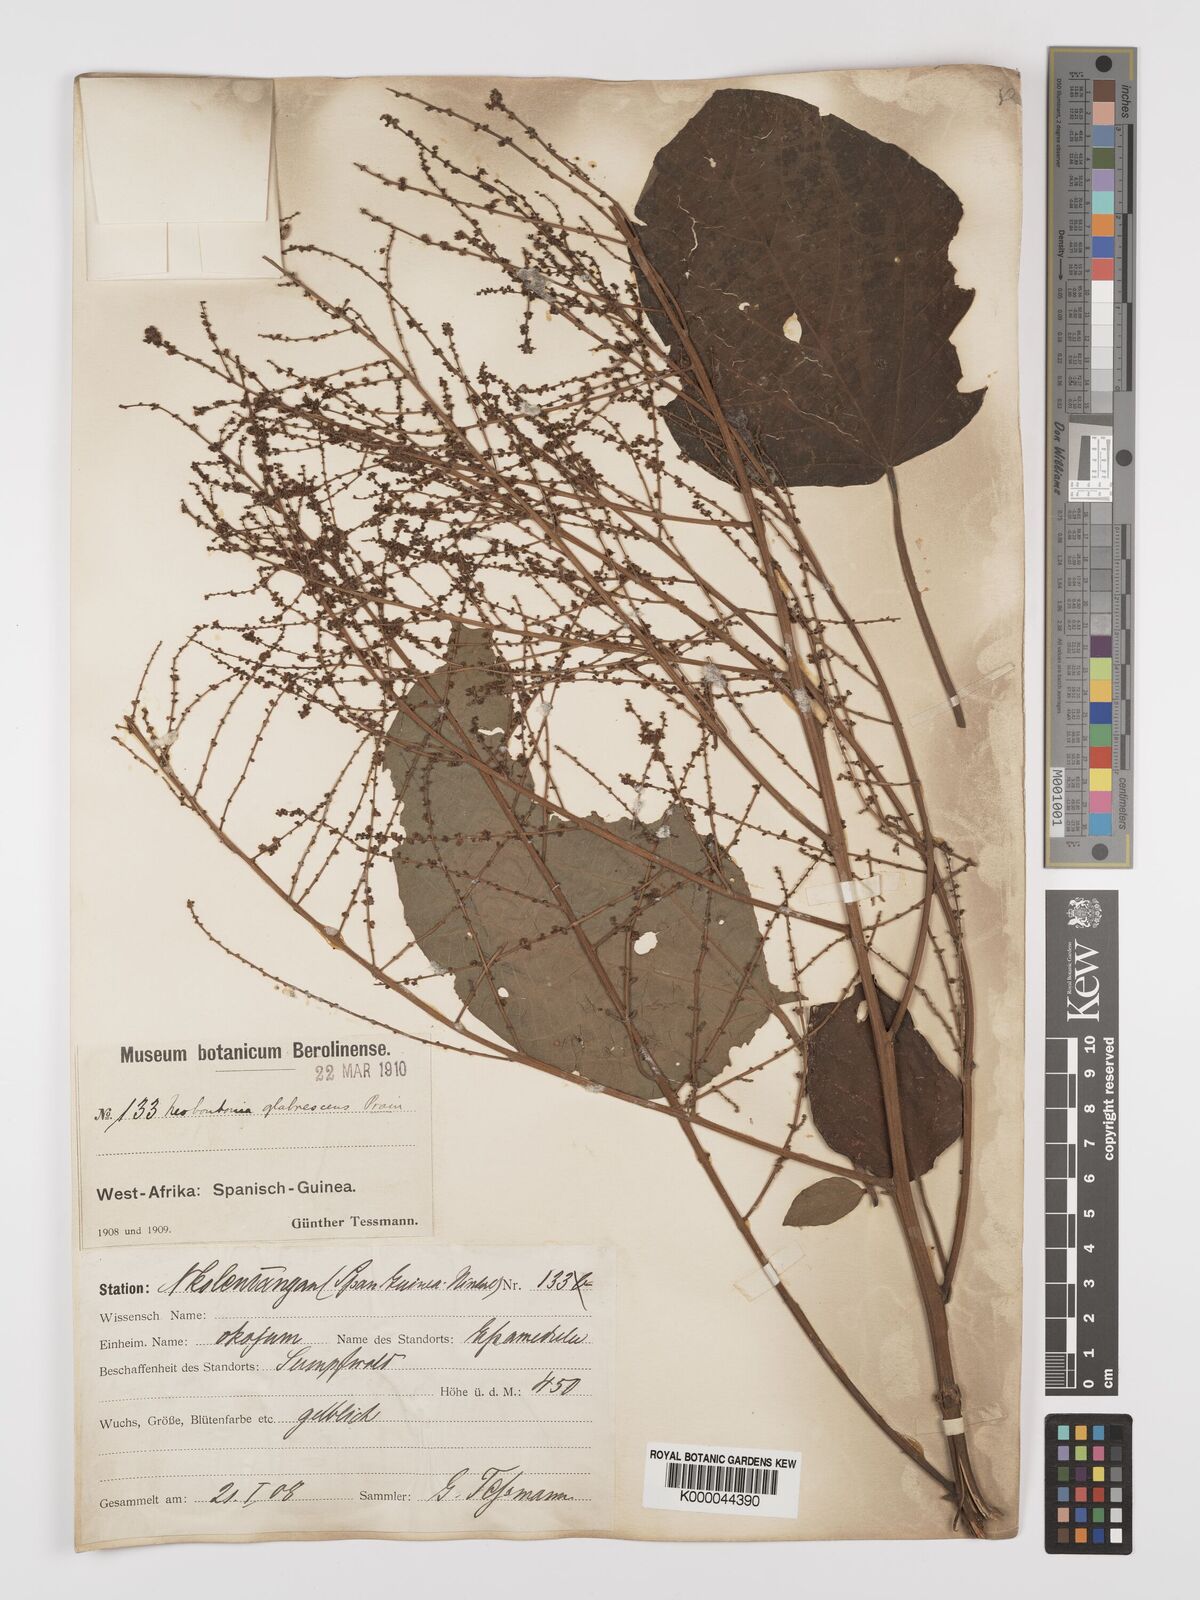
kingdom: Plantae
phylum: Tracheophyta
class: Magnoliopsida
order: Malpighiales
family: Euphorbiaceae
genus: Neoboutonia
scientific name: Neoboutonia mannii
